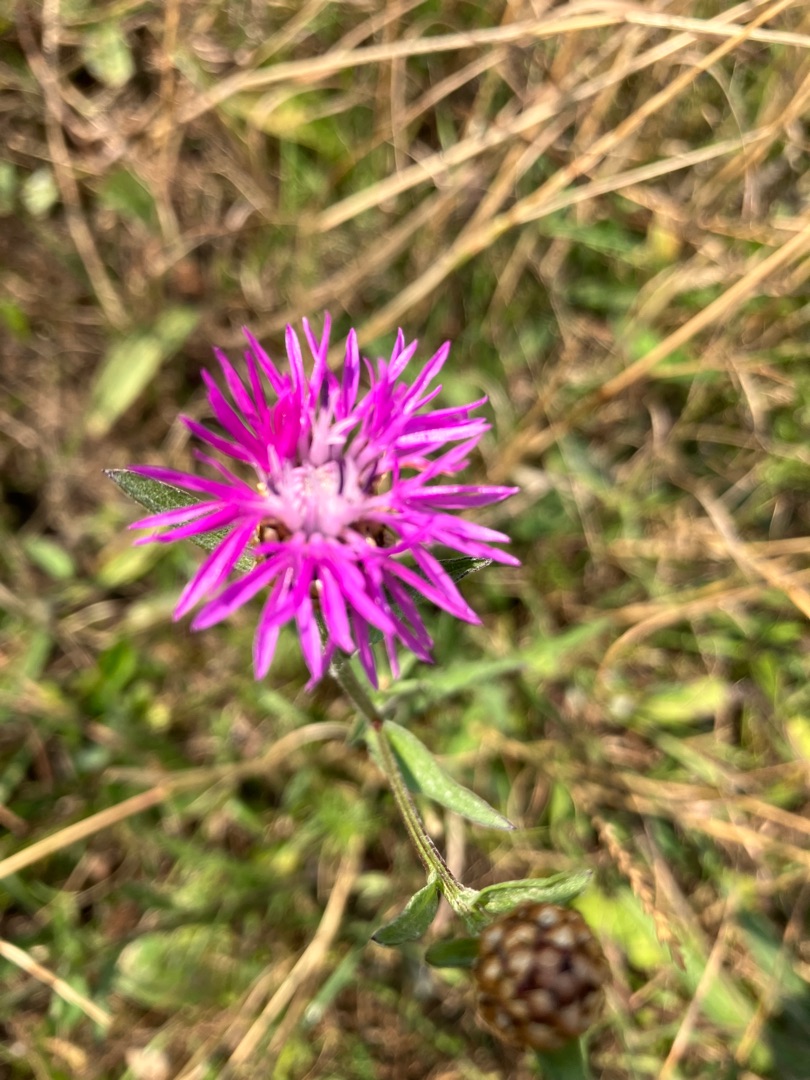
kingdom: Plantae
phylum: Tracheophyta
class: Magnoliopsida
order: Asterales
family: Asteraceae
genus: Centaurea
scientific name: Centaurea jacea
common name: Almindelig knopurt
